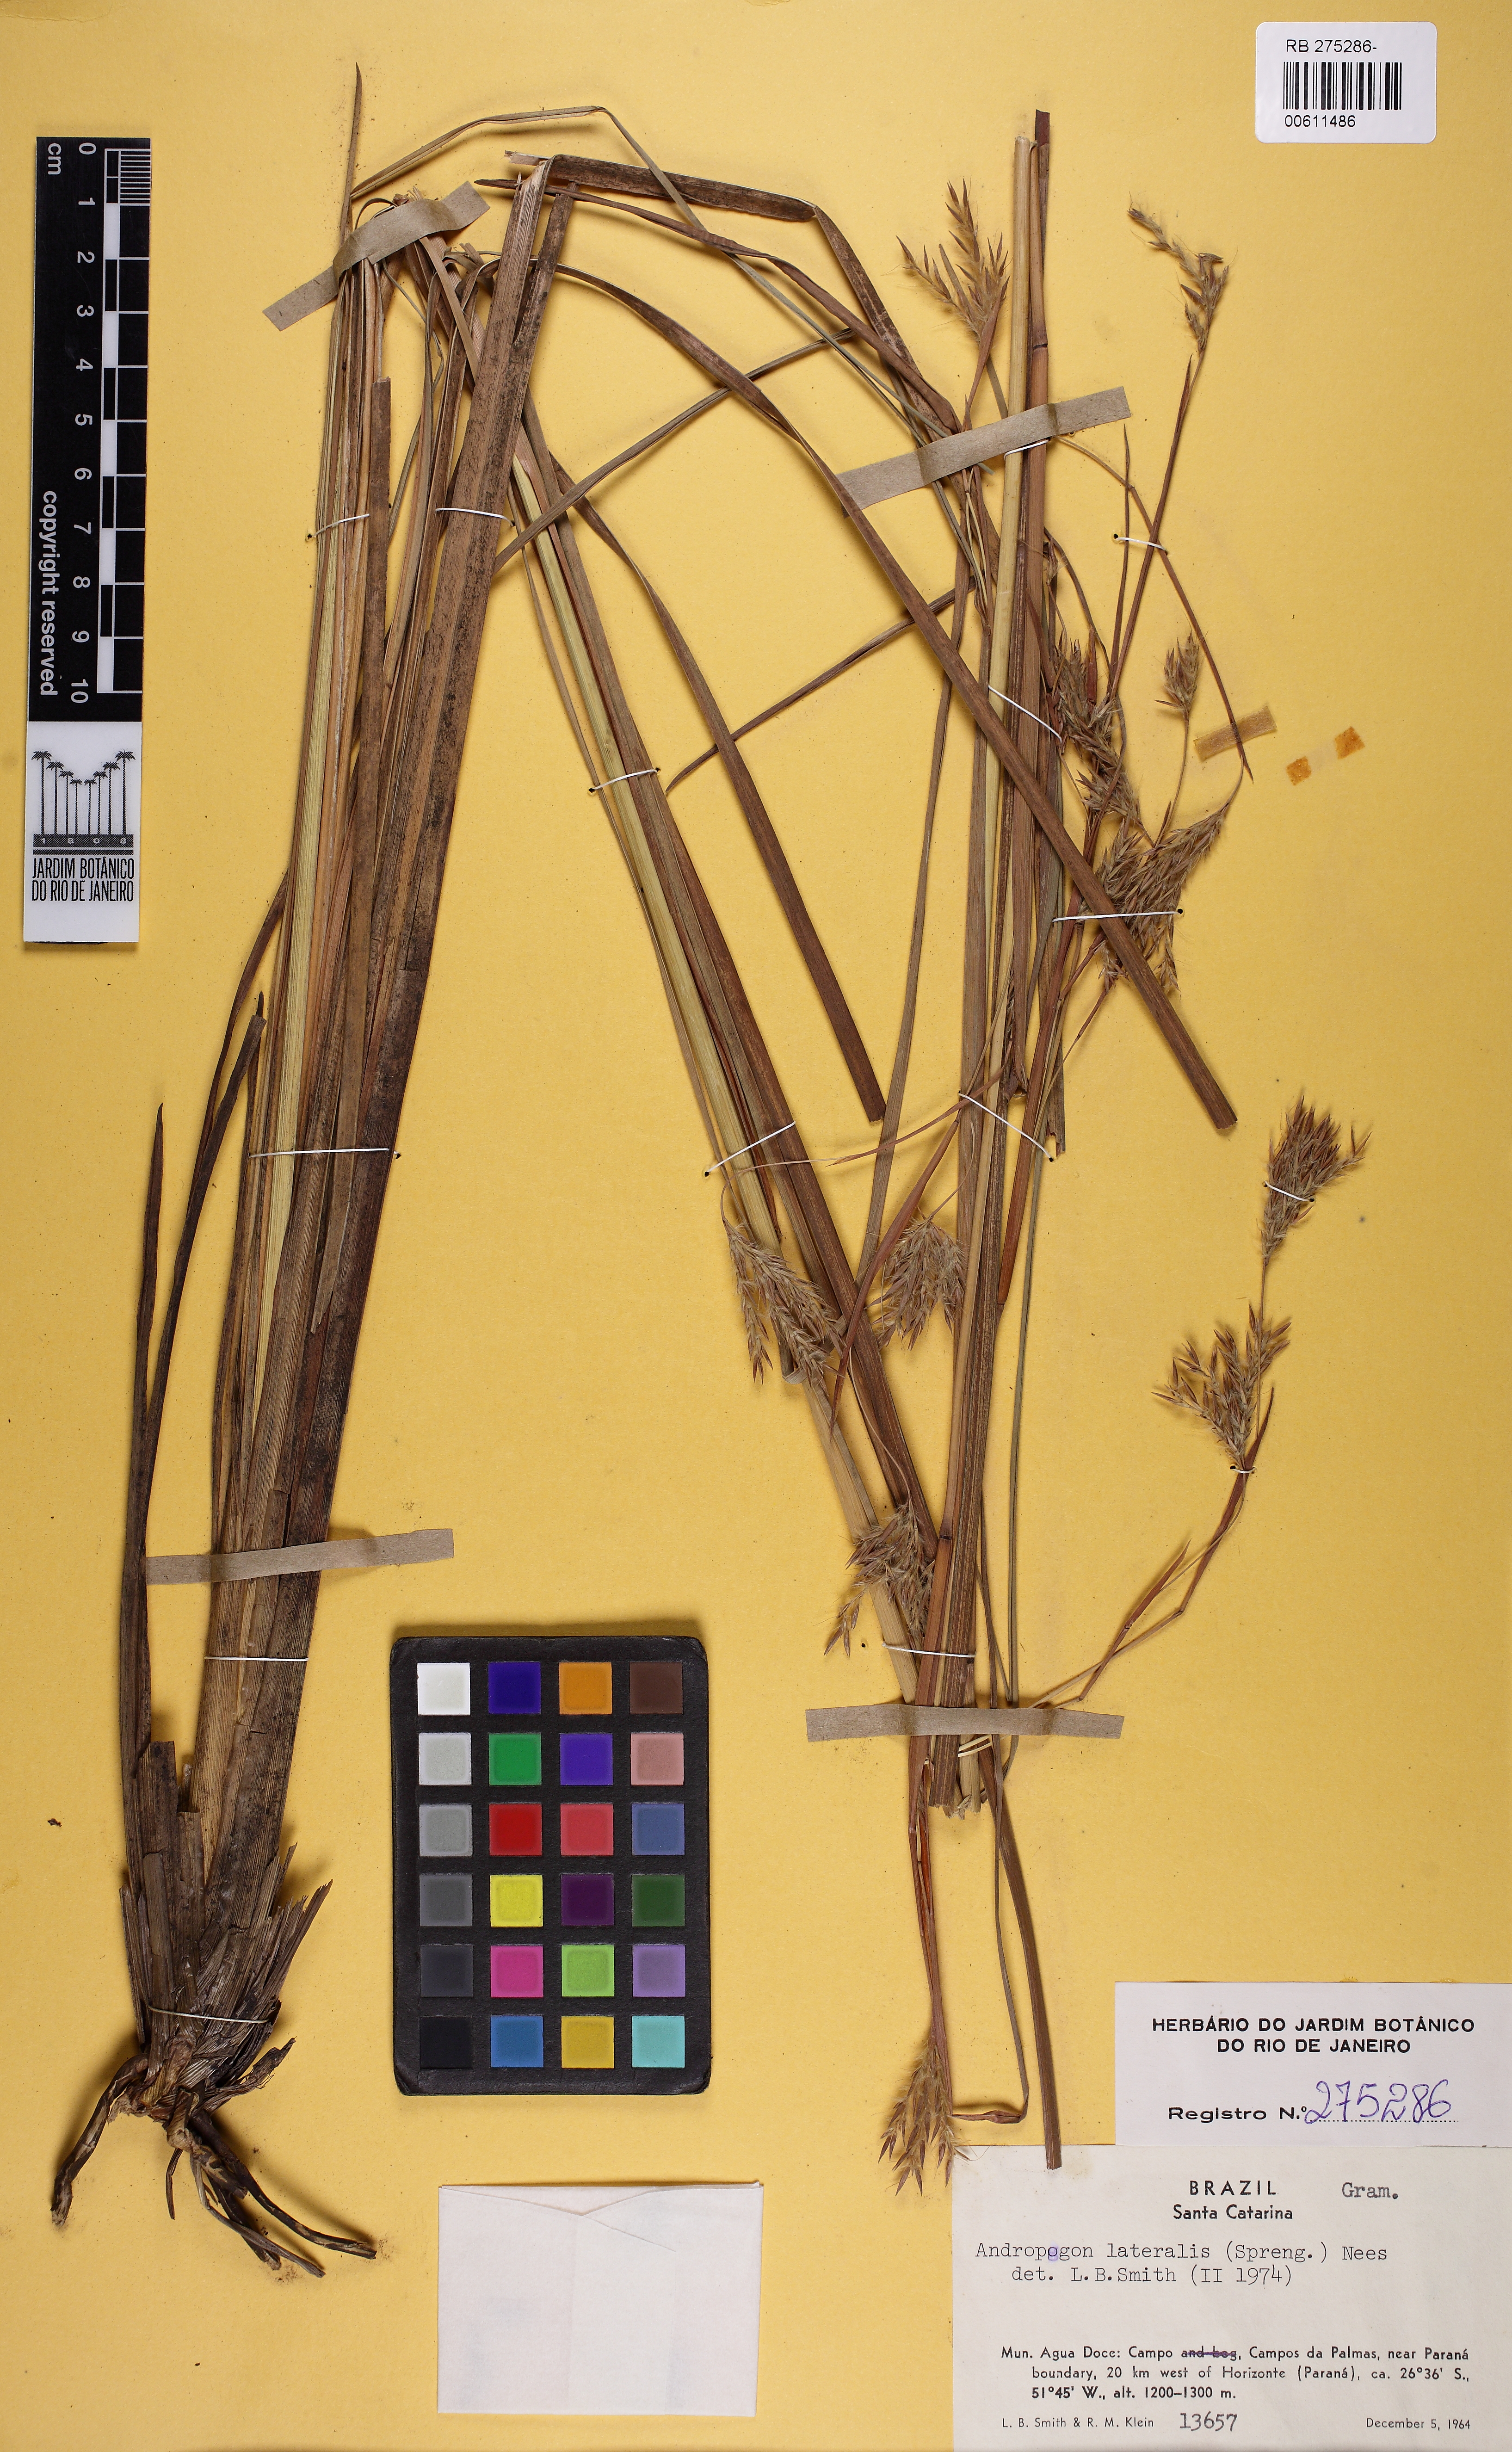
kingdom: Plantae
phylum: Tracheophyta
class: Liliopsida
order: Poales
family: Poaceae
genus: Andropogon
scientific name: Andropogon lateralis
